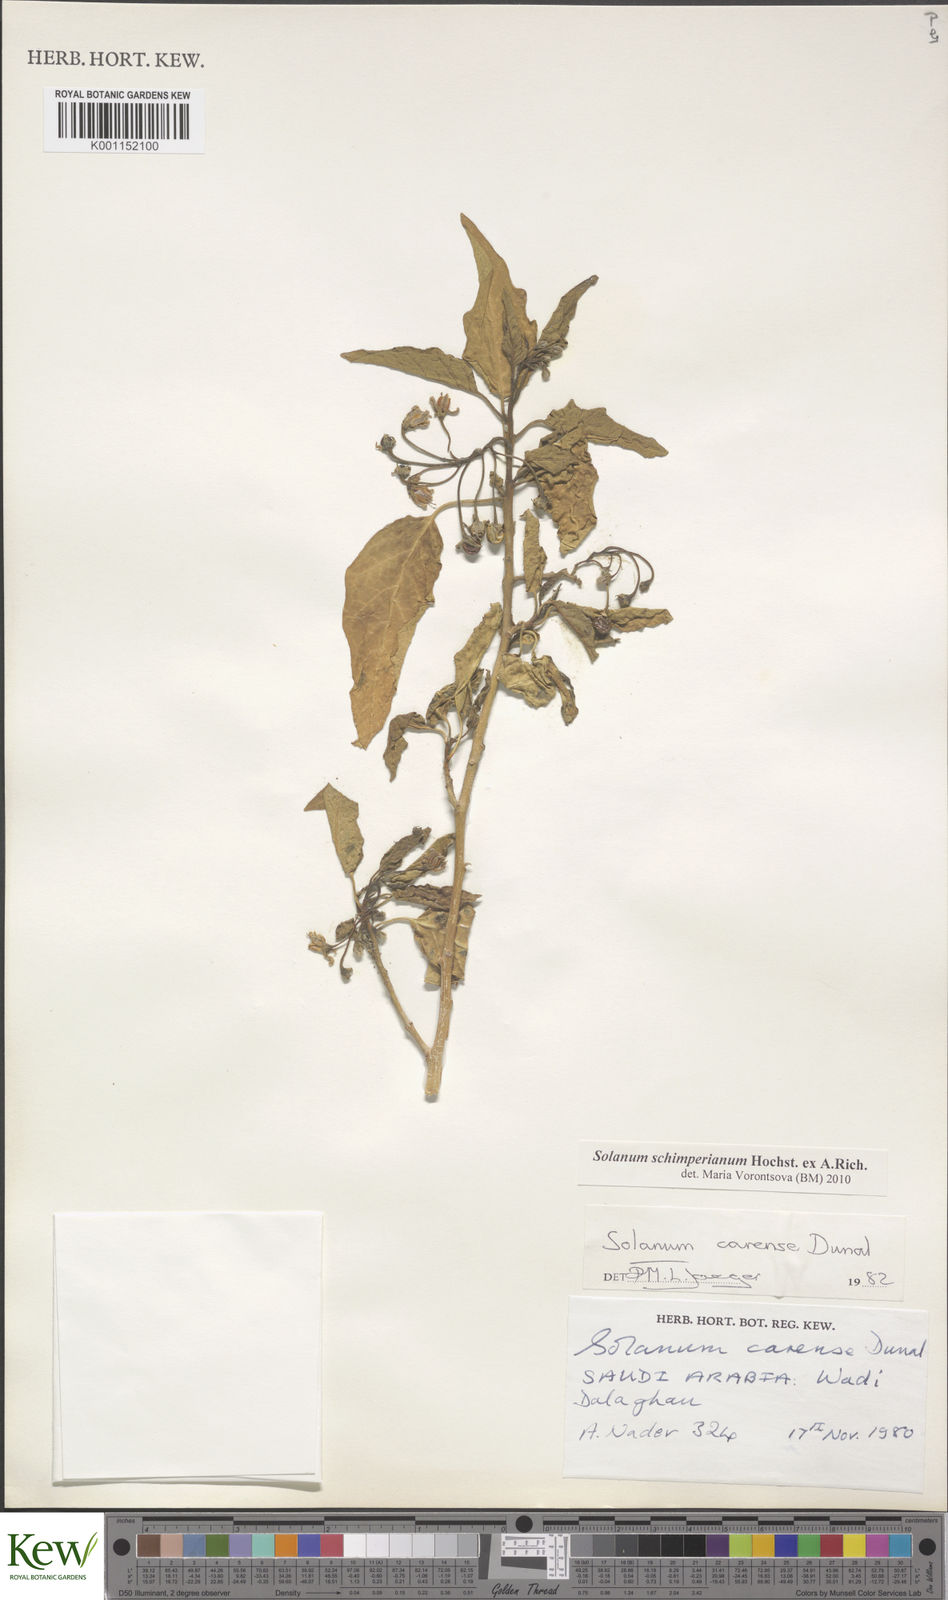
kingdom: Plantae
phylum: Tracheophyta
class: Magnoliopsida
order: Solanales
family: Solanaceae
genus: Solanum
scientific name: Solanum schimperianum
